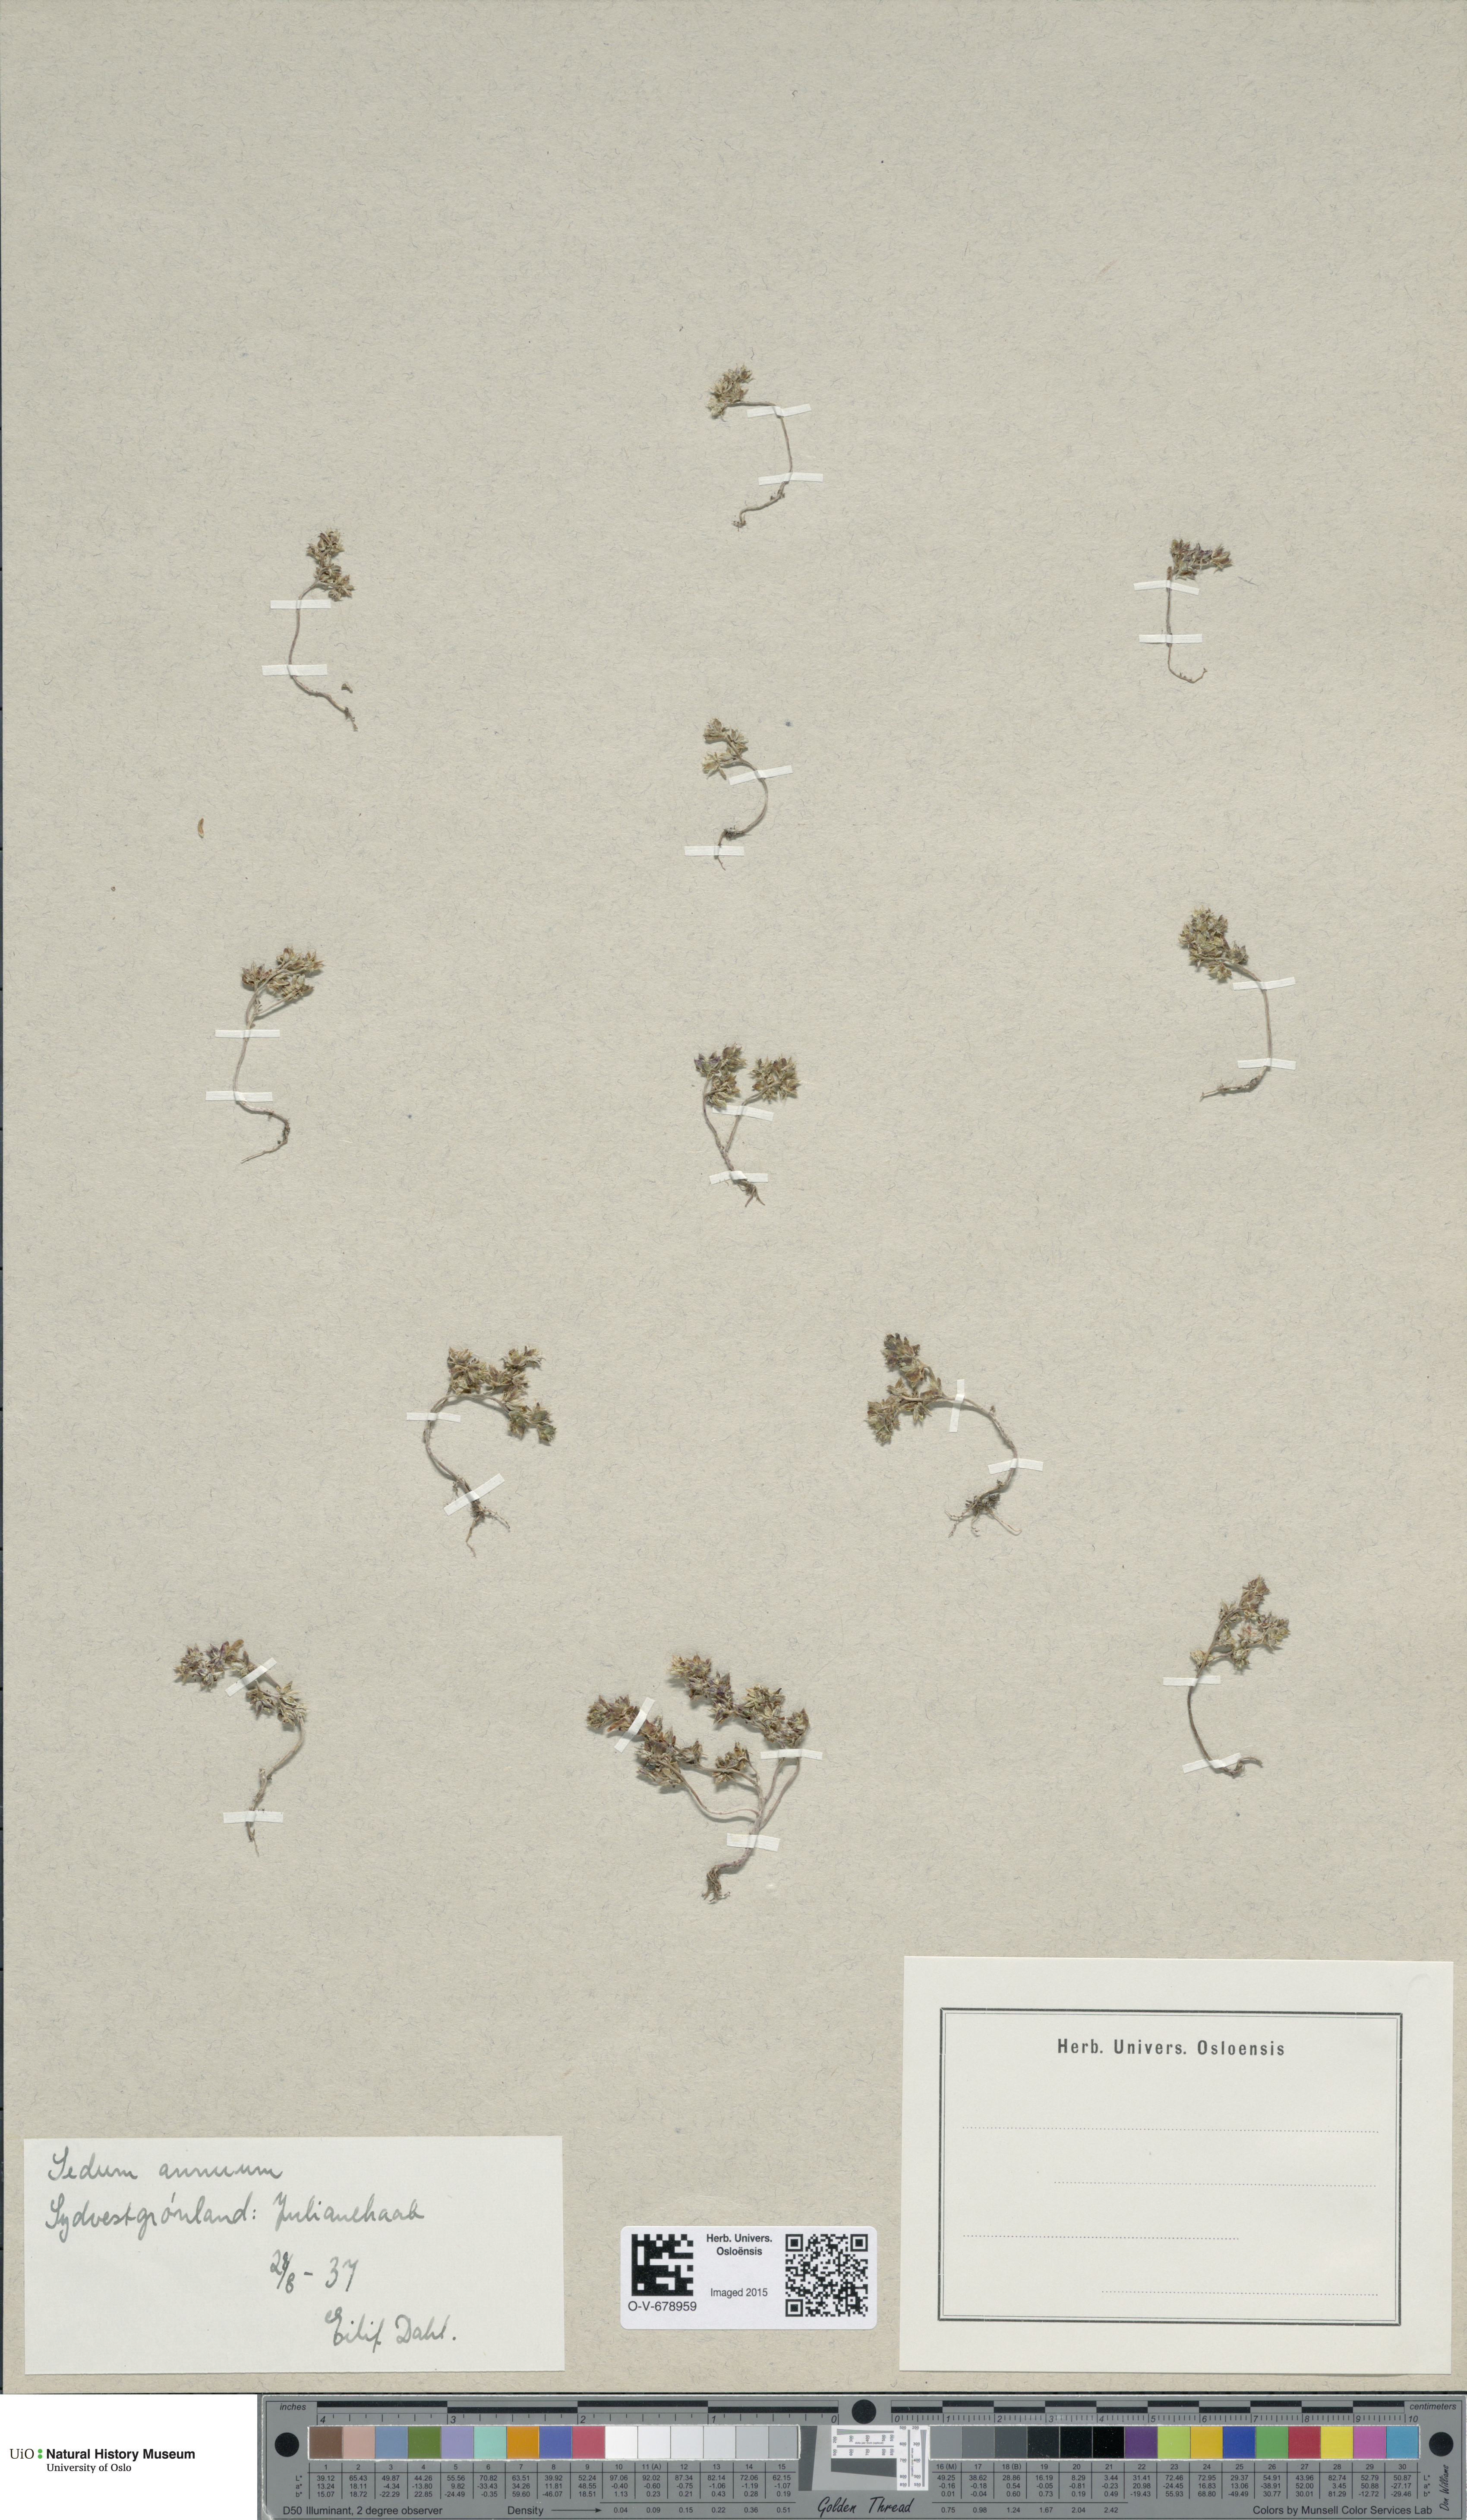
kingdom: Plantae
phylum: Tracheophyta
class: Magnoliopsida
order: Saxifragales
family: Crassulaceae
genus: Sedum
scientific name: Sedum annuum
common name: Annual stonecrop
